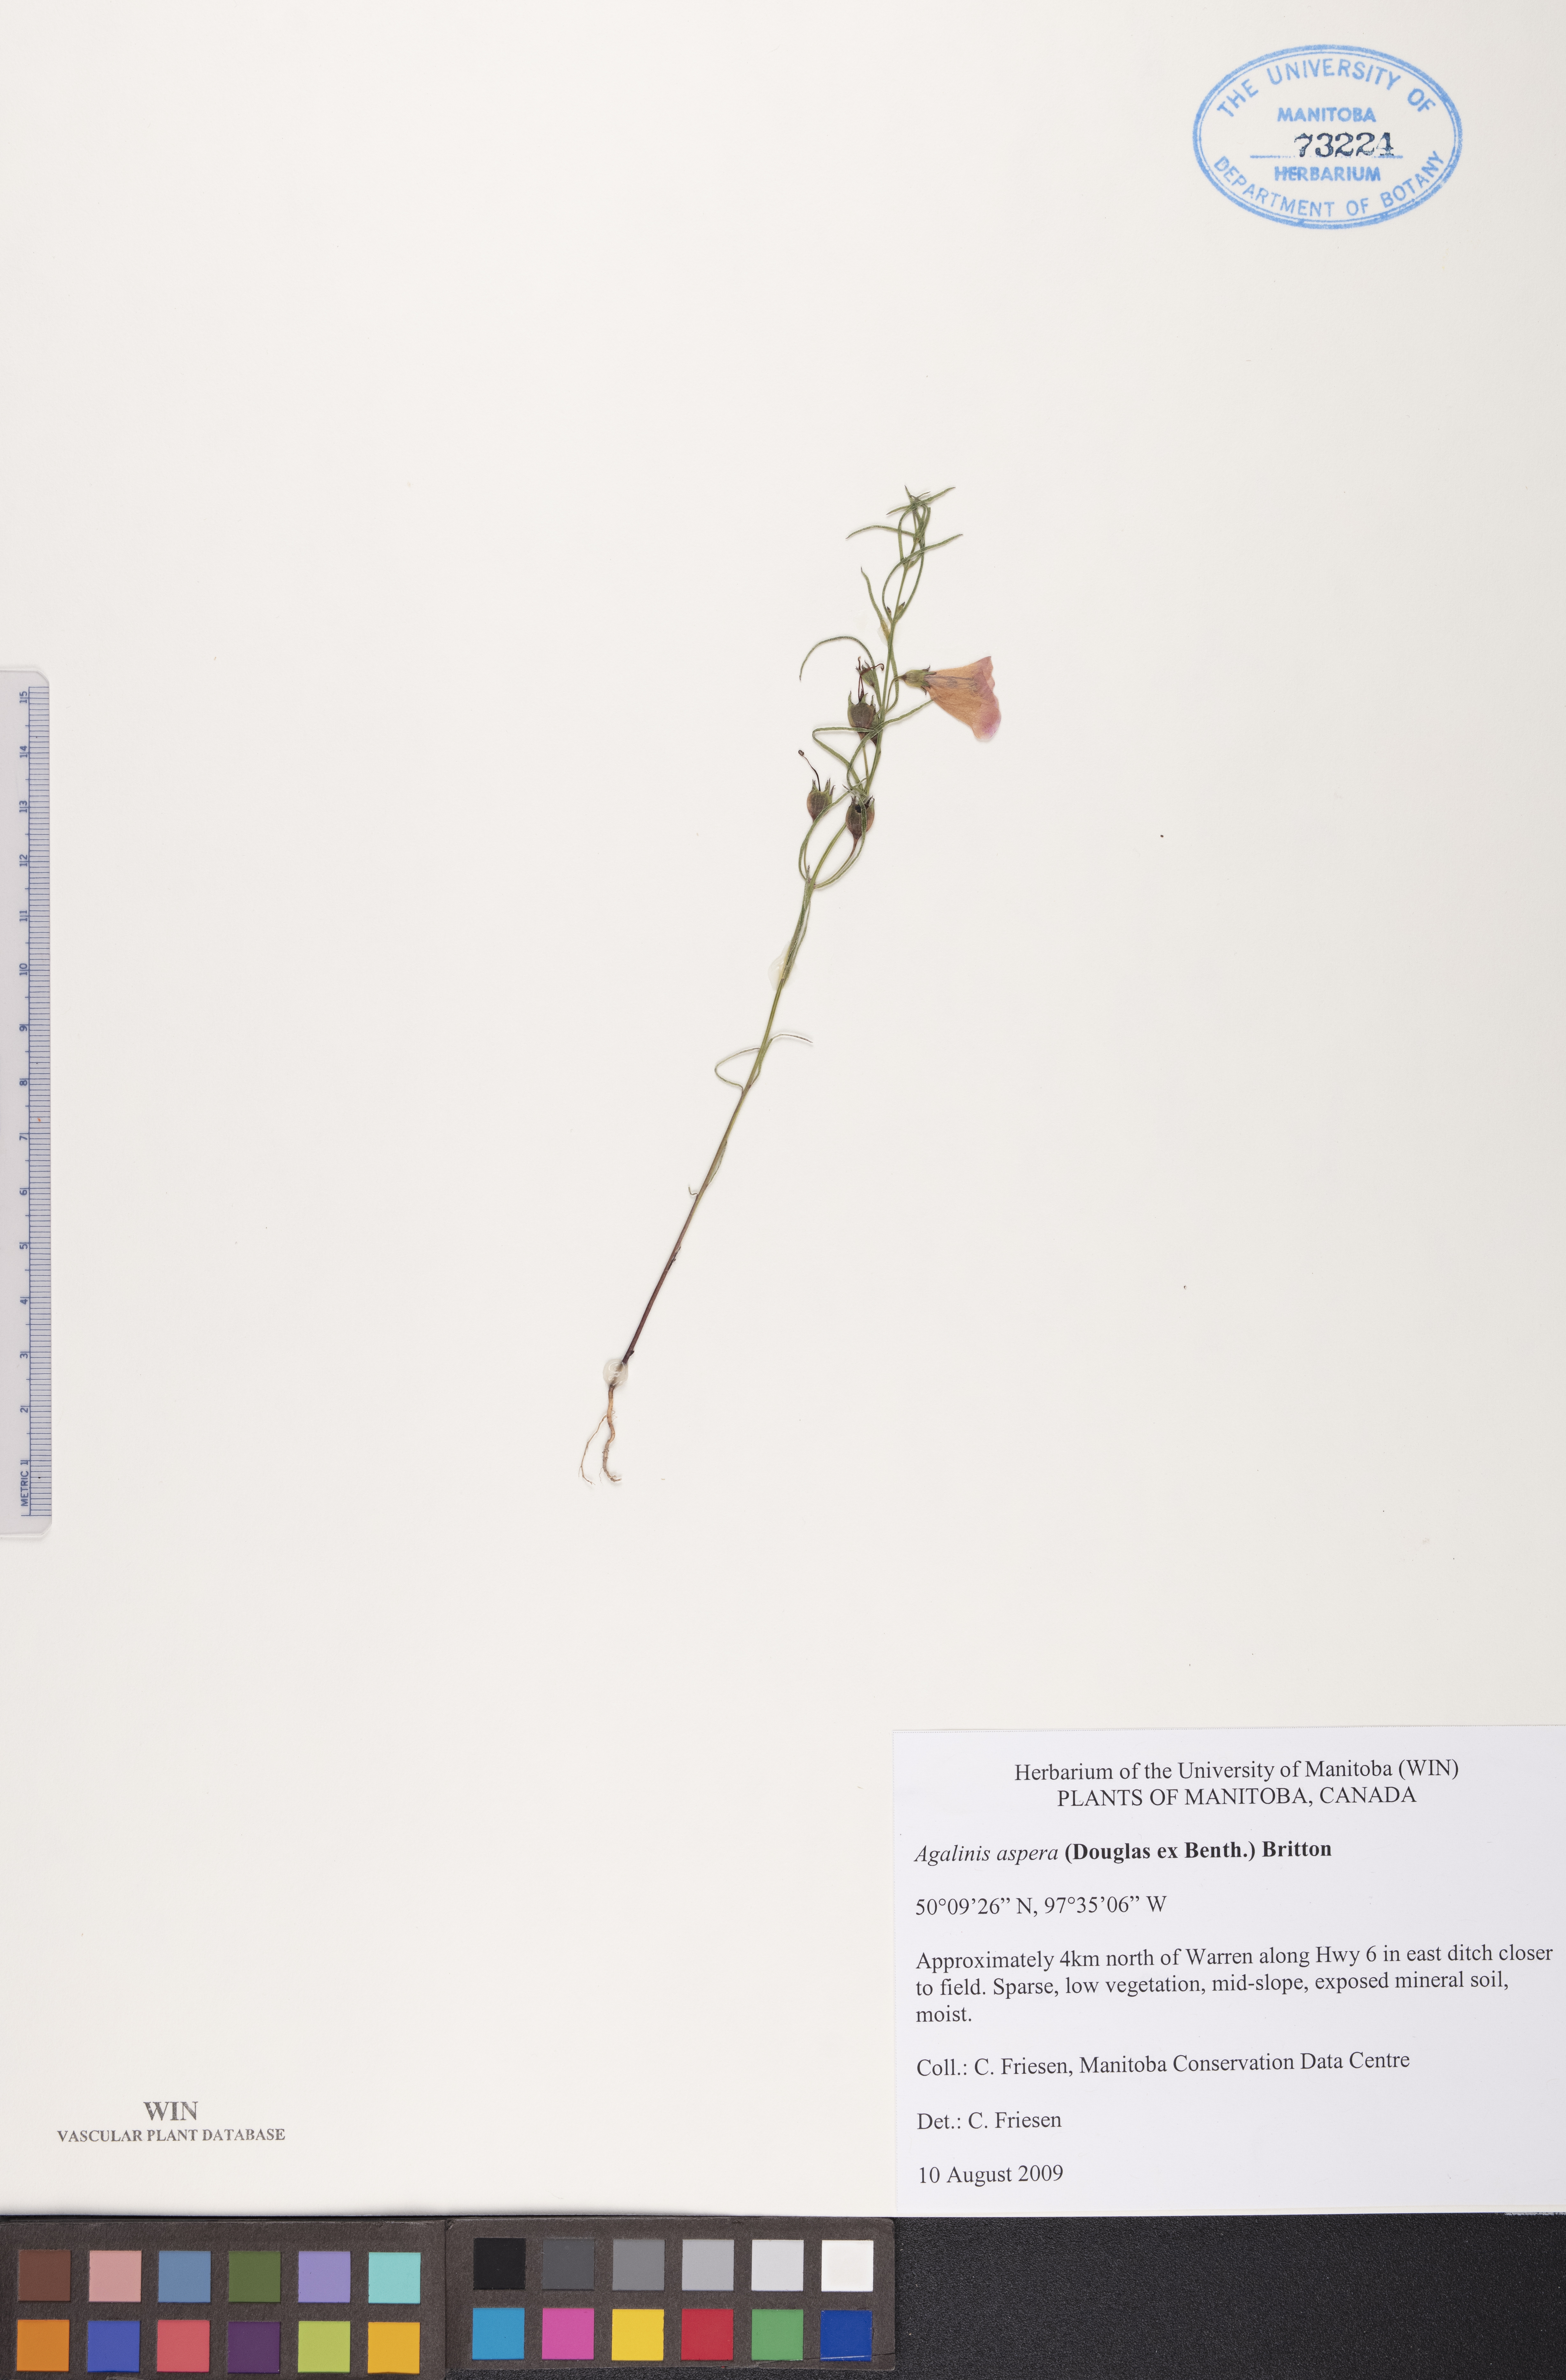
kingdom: Plantae
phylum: Tracheophyta
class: Magnoliopsida
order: Lamiales
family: Orobanchaceae
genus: Agalinis
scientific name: Agalinis aspera
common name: Rough agalinis
